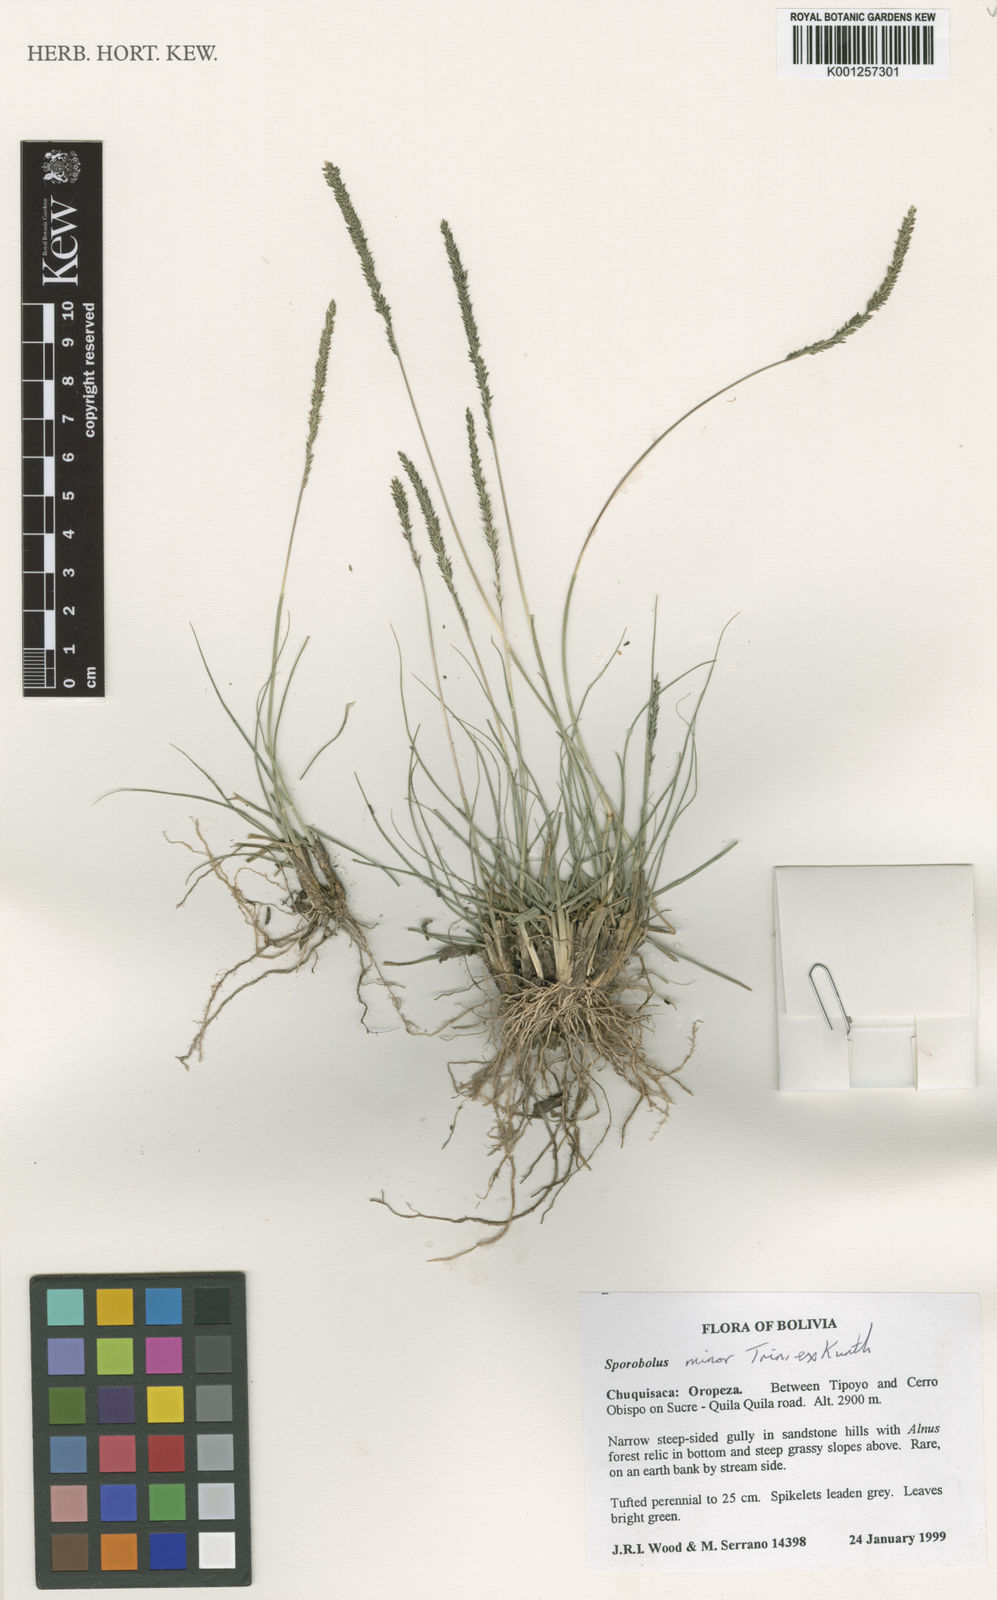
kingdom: Plantae
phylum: Tracheophyta
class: Liliopsida
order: Poales
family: Poaceae
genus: Sporobolus
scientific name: Sporobolus
